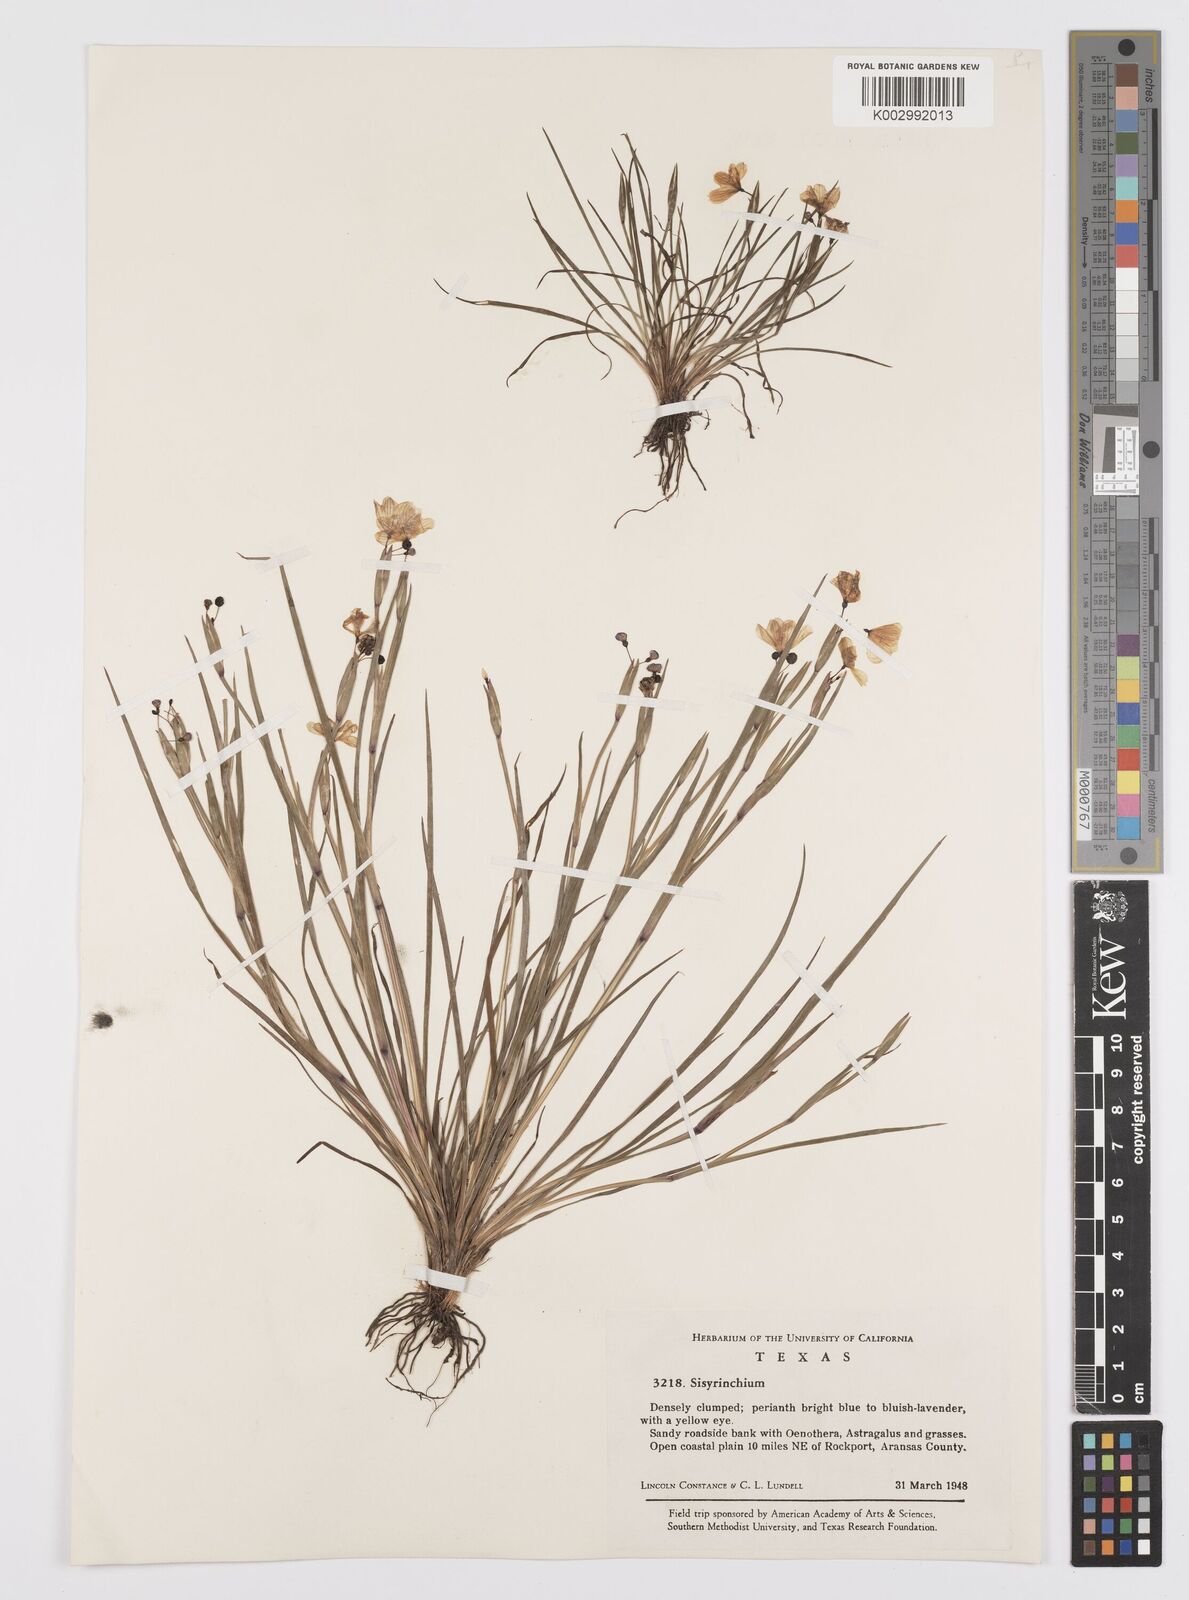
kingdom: Plantae
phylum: Tracheophyta
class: Liliopsida
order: Asparagales
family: Iridaceae
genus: Sisyrinchium
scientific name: Sisyrinchium
